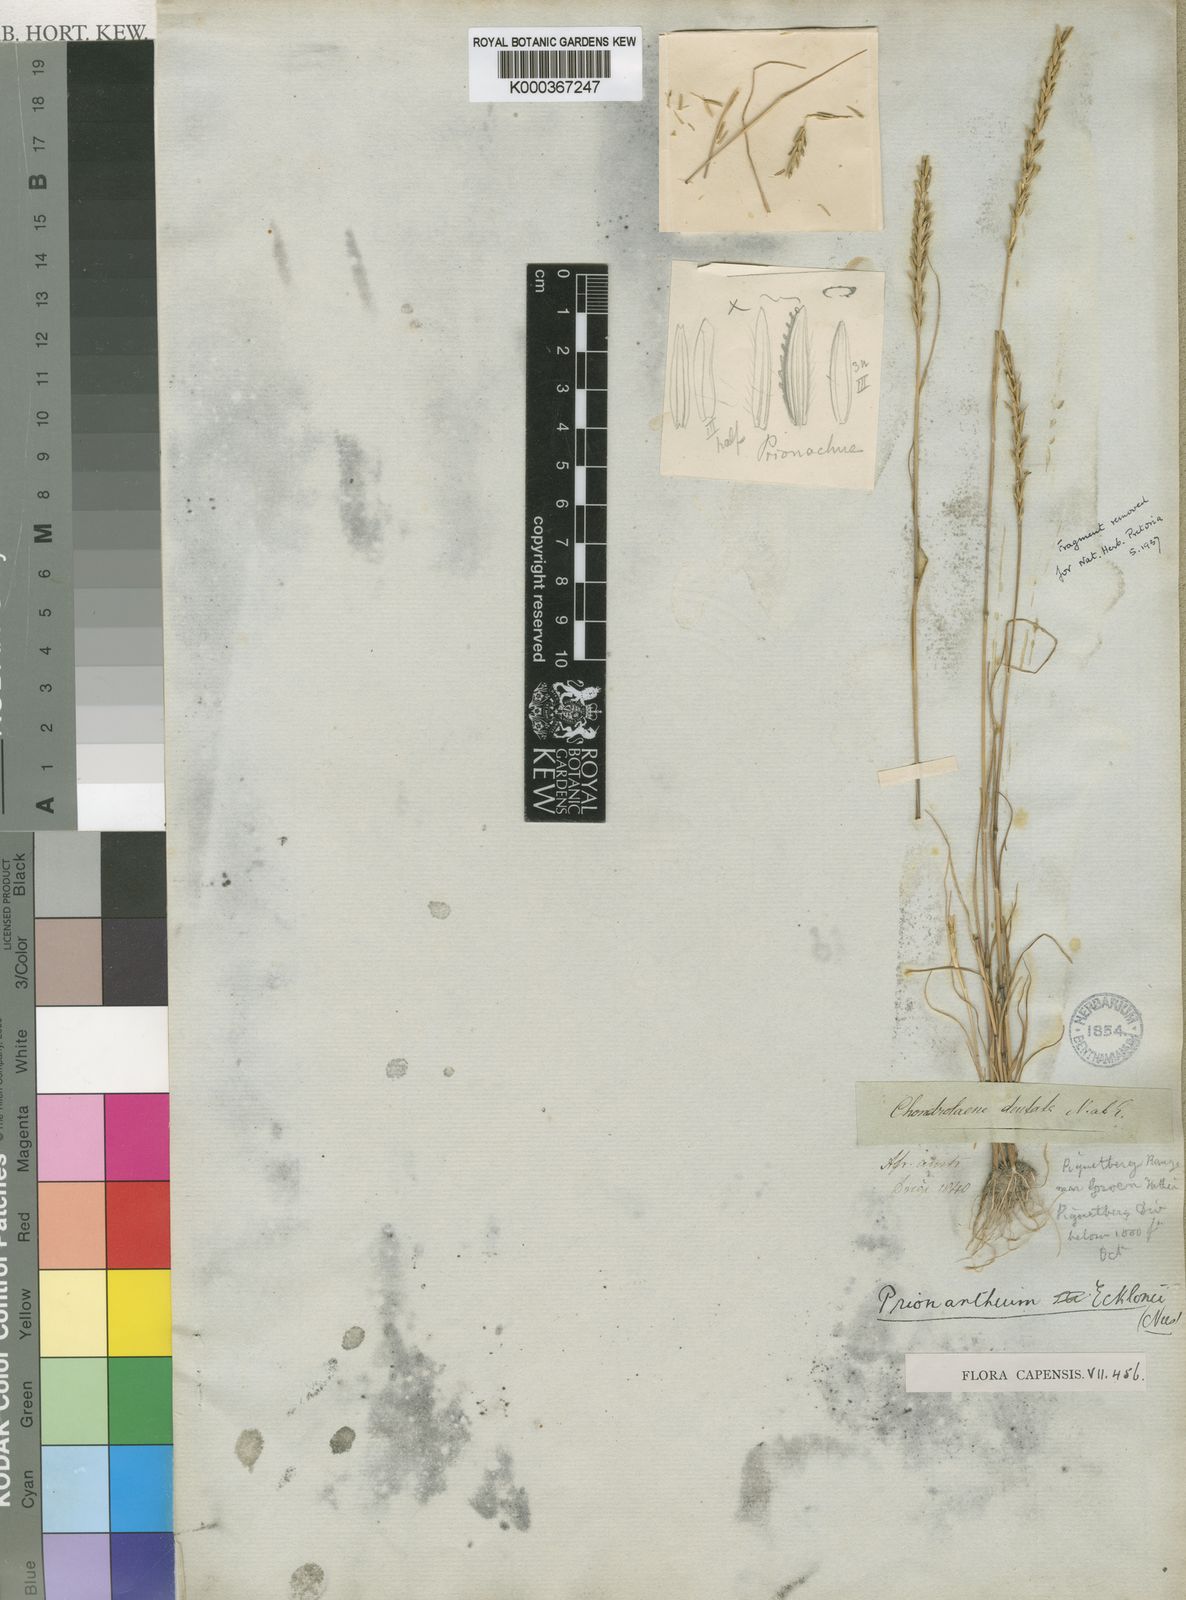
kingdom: Plantae
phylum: Tracheophyta
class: Liliopsida
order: Poales
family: Poaceae
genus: Pentameris
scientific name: Pentameris ecklonii
